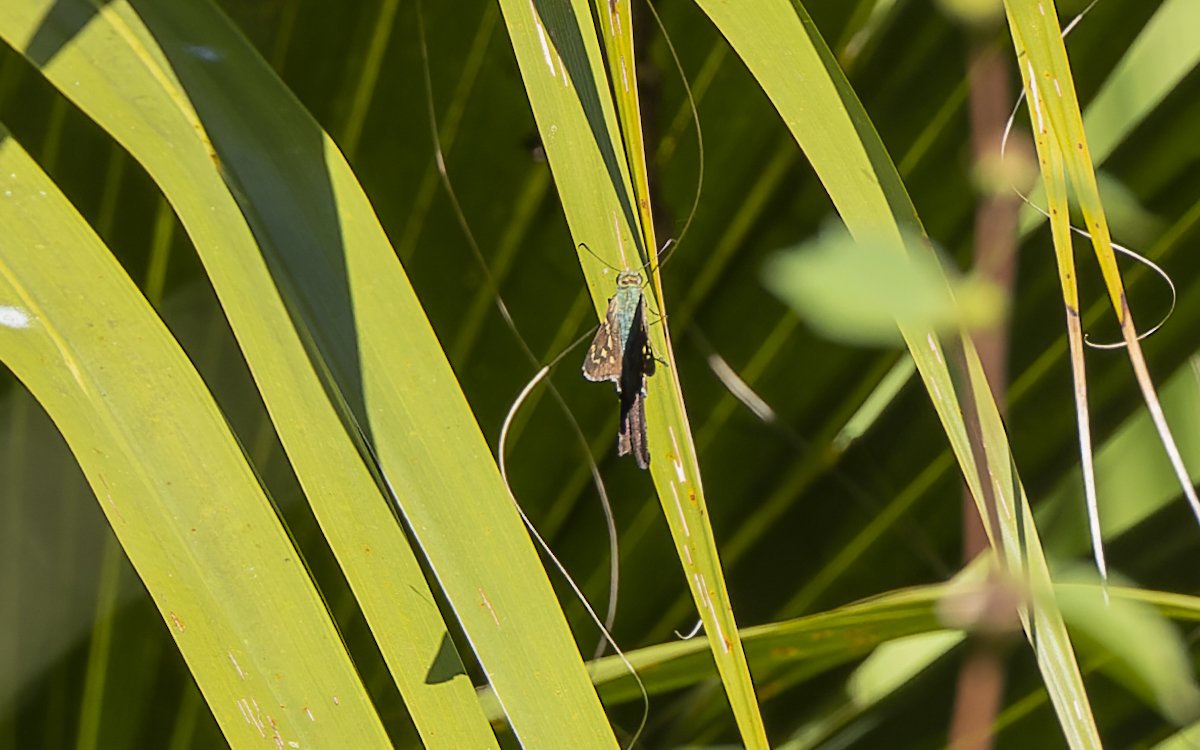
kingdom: Animalia
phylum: Arthropoda
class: Insecta
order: Lepidoptera
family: Hesperiidae
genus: Urbanus
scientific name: Urbanus proteus
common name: Long-tailed Skipper
